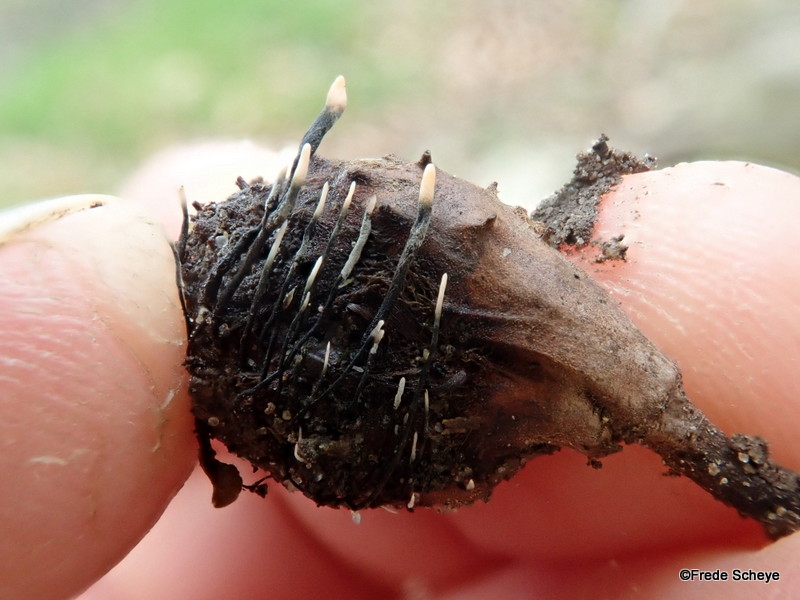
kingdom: Fungi
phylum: Ascomycota
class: Sordariomycetes
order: Xylariales
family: Xylariaceae
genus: Xylaria
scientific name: Xylaria carpophila
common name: bogskål-stødsvamp
